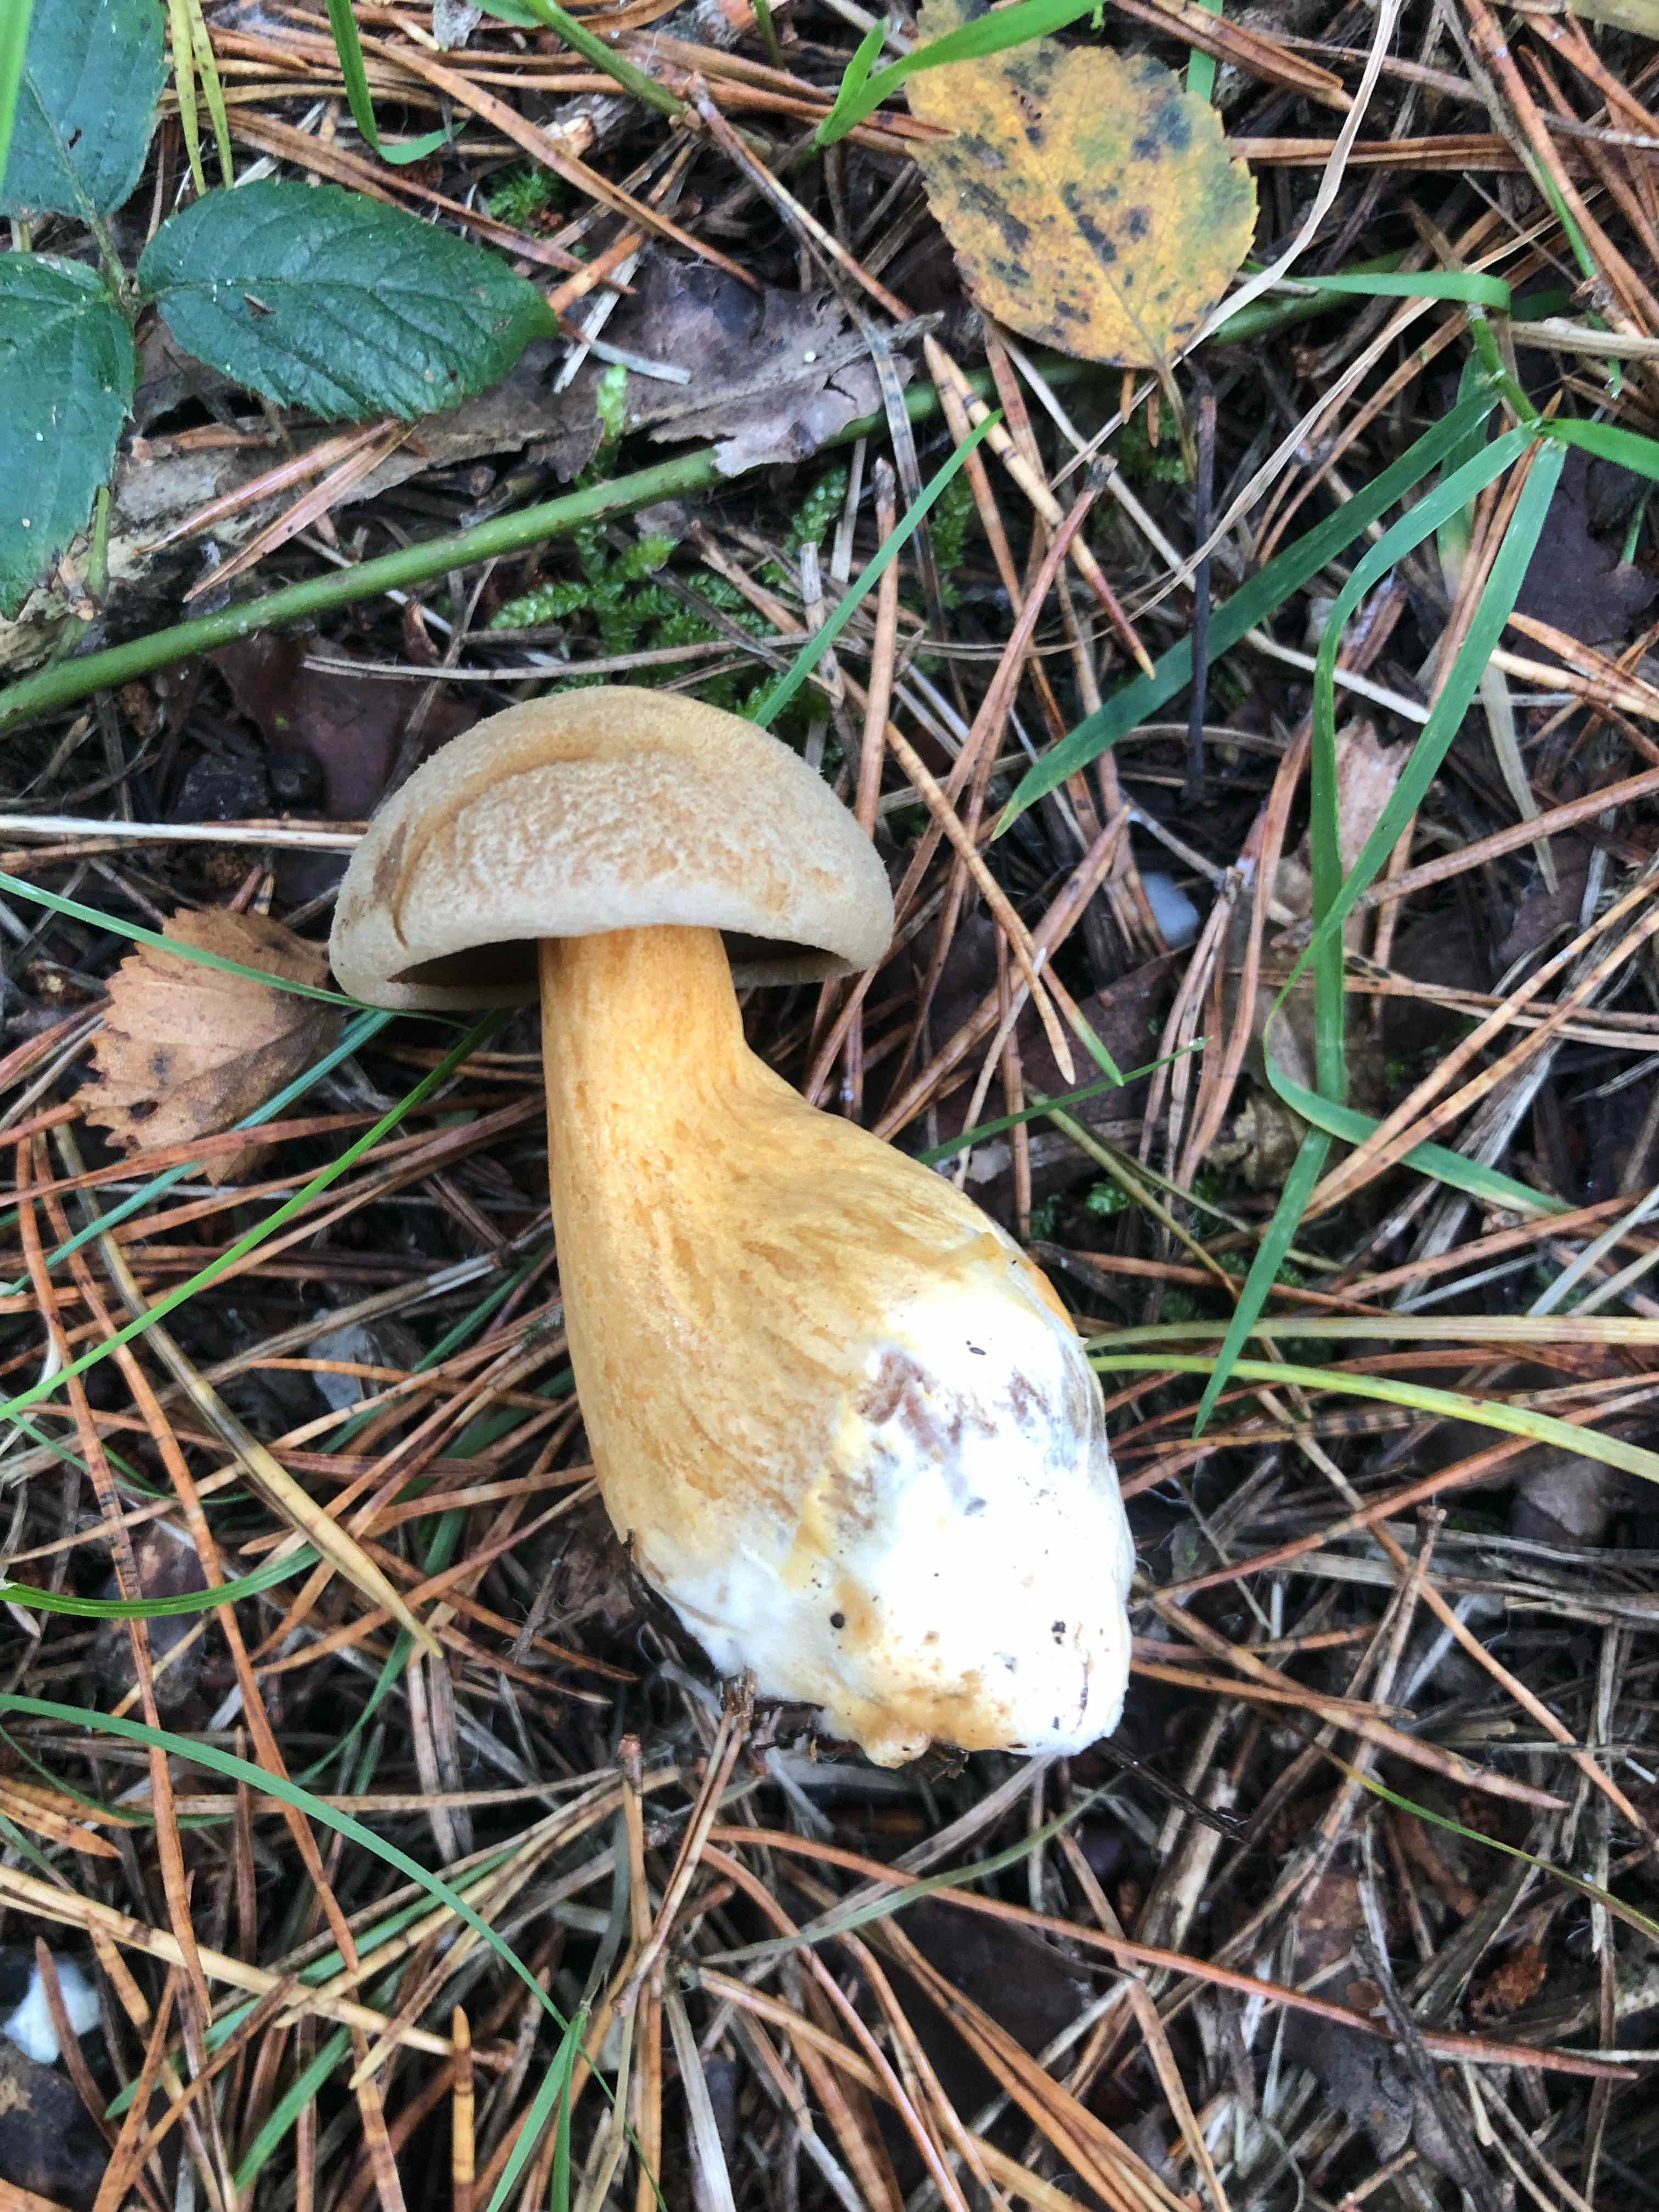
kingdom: Fungi
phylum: Basidiomycota
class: Agaricomycetes
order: Boletales
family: Suillaceae
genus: Suillus
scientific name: Suillus variegatus
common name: broget slimrørhat
